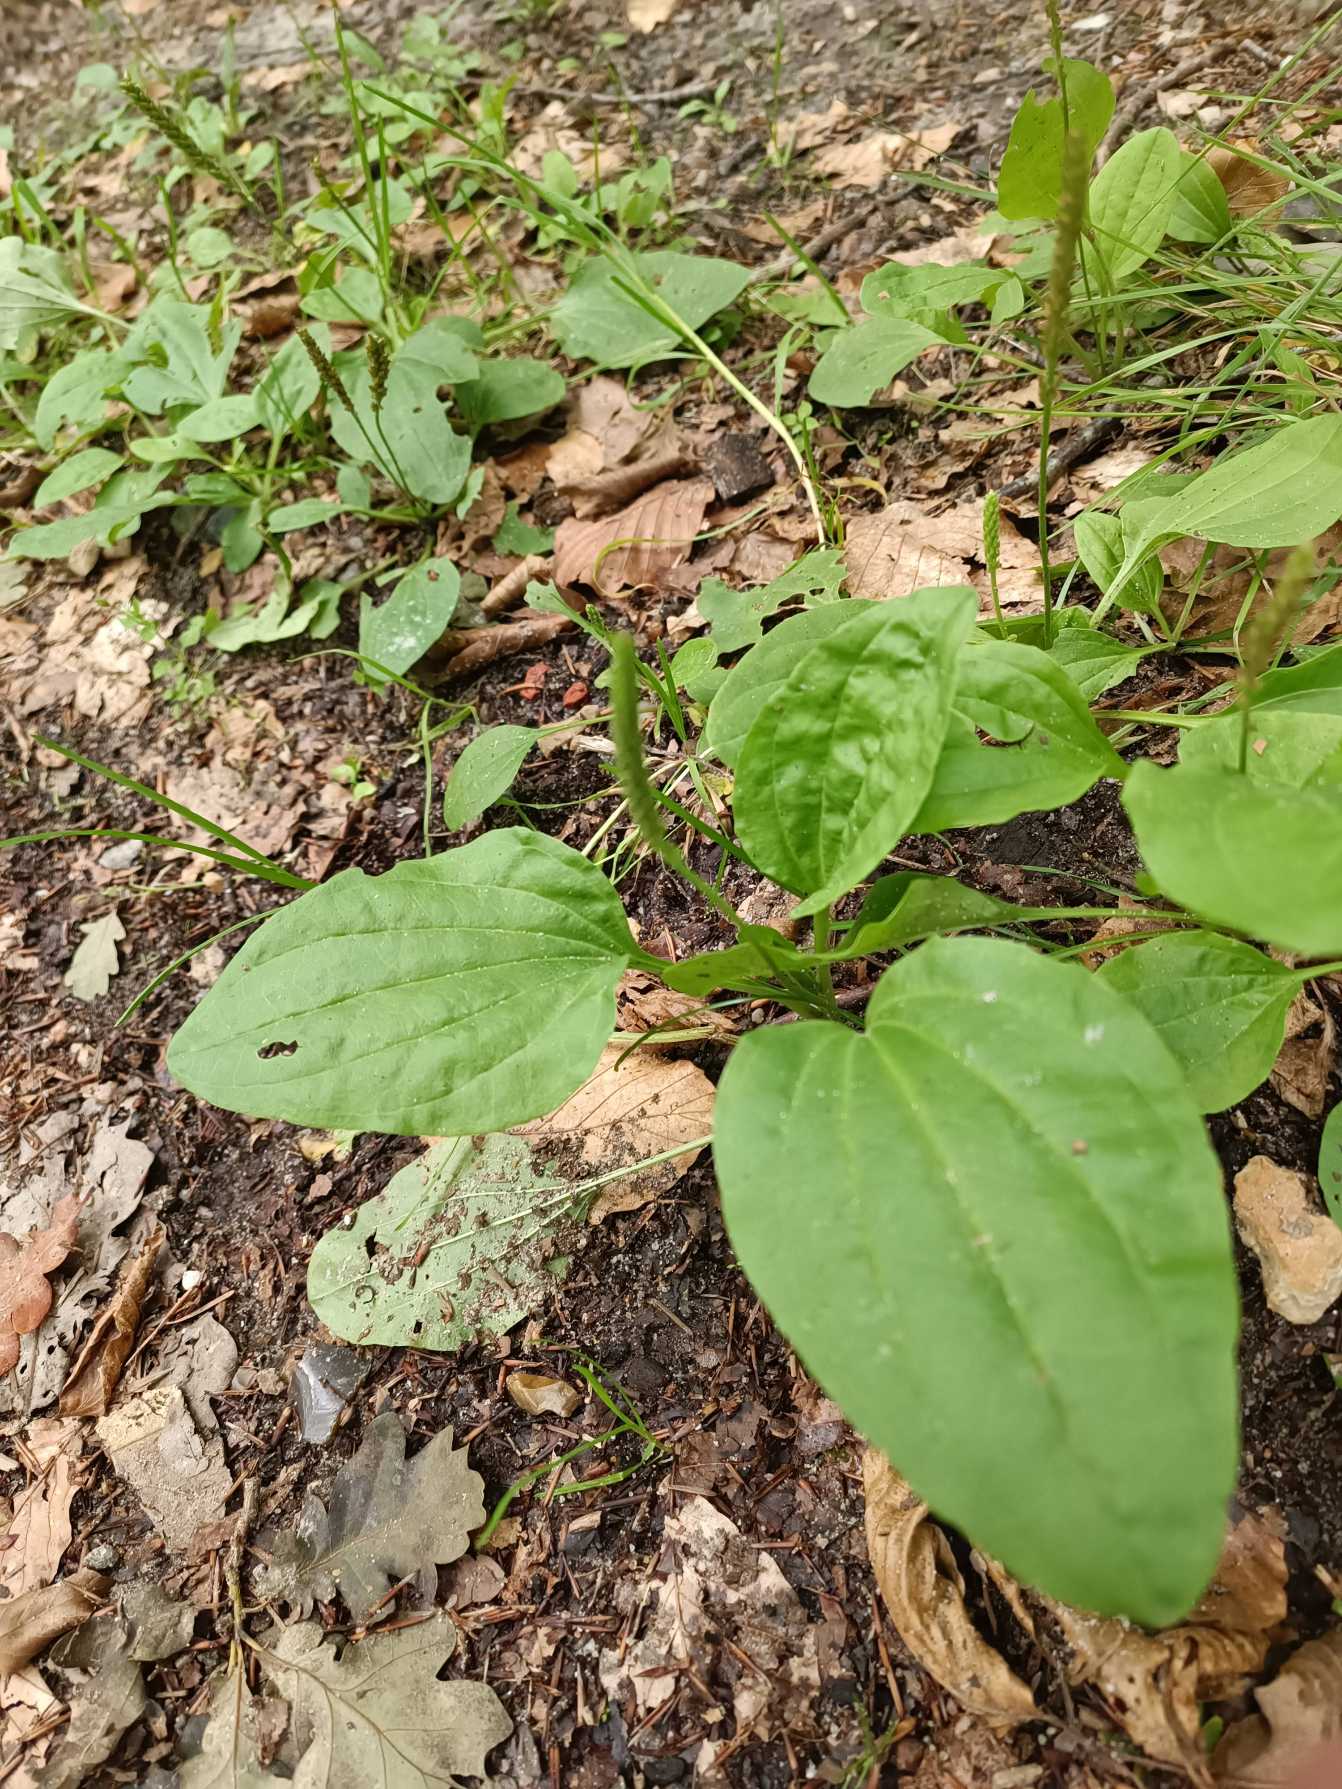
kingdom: Plantae
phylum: Tracheophyta
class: Magnoliopsida
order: Lamiales
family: Plantaginaceae
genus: Plantago
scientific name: Plantago major
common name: Glat vejbred
